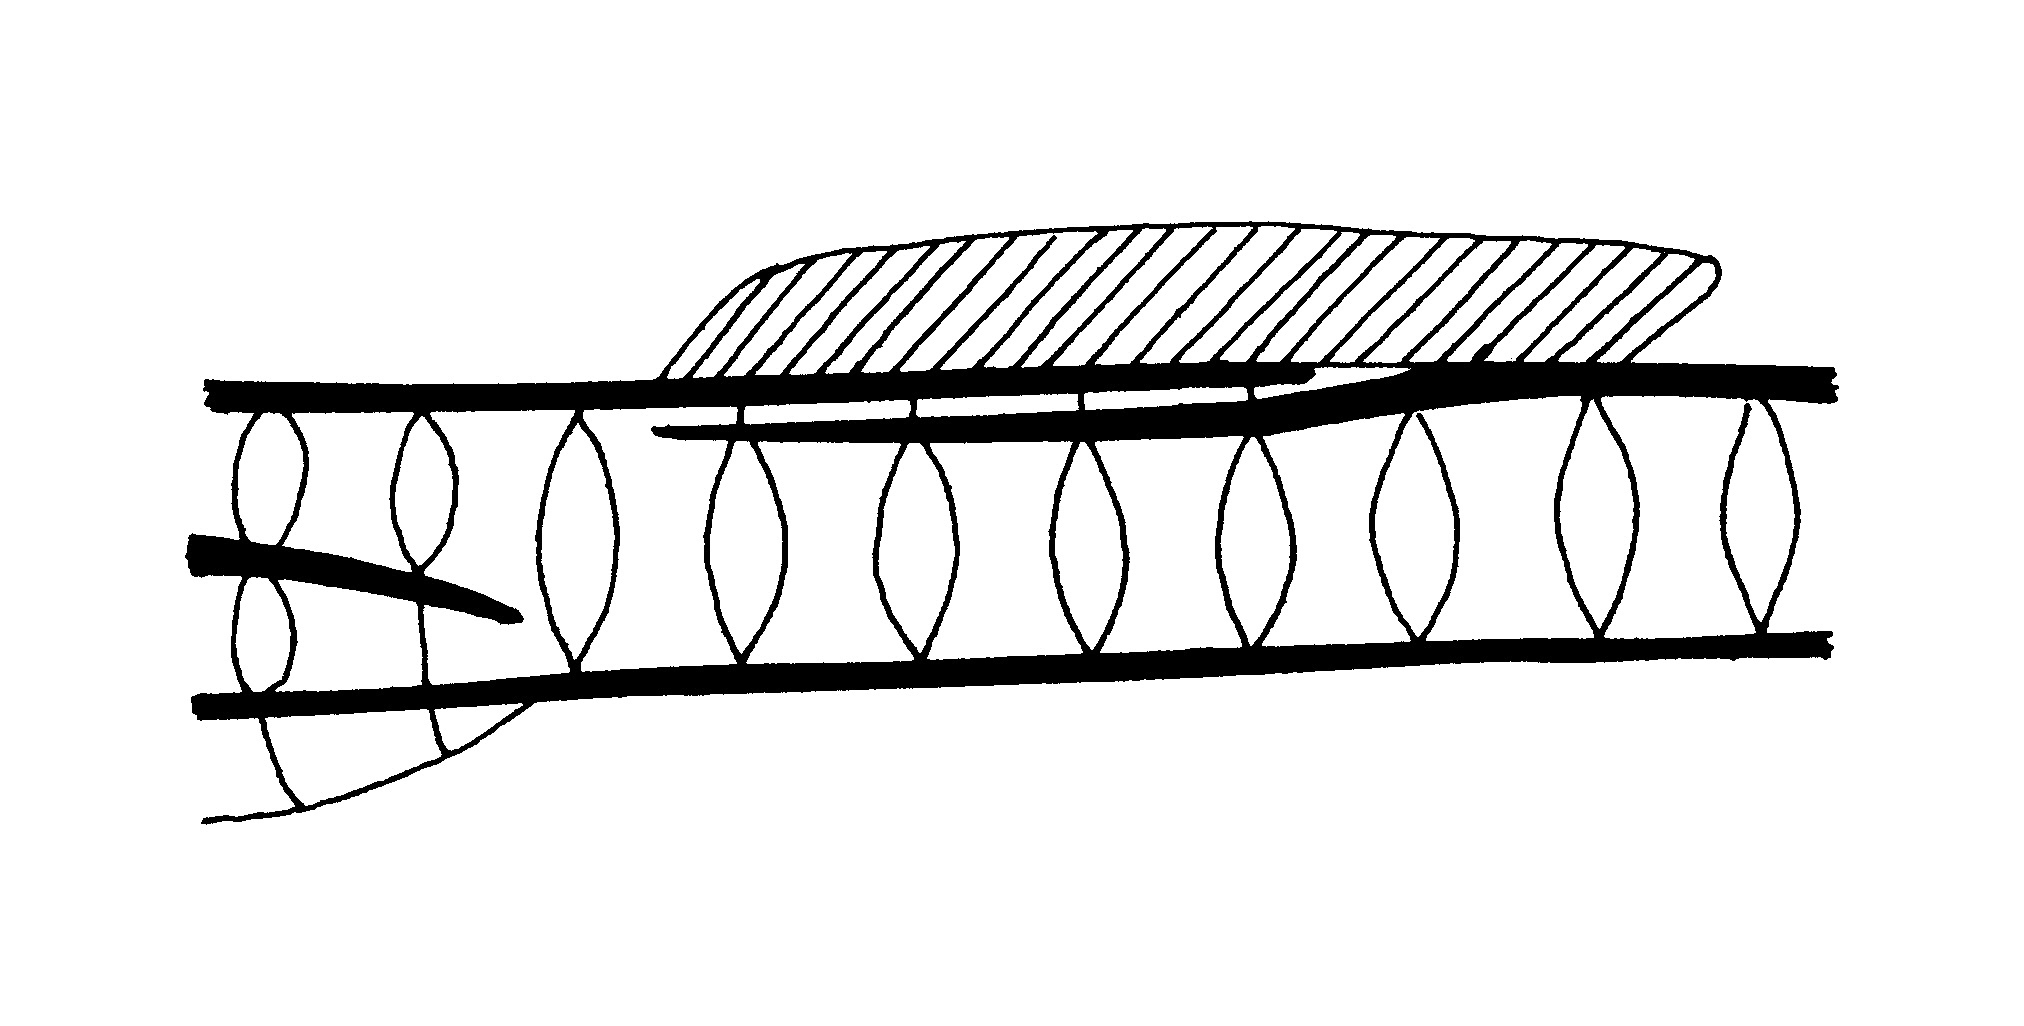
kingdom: Animalia
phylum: Chordata
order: Syngnathiformes
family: Syngnathidae
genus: Hippichthys
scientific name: Hippichthys penicillus
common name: Beady pipefish
